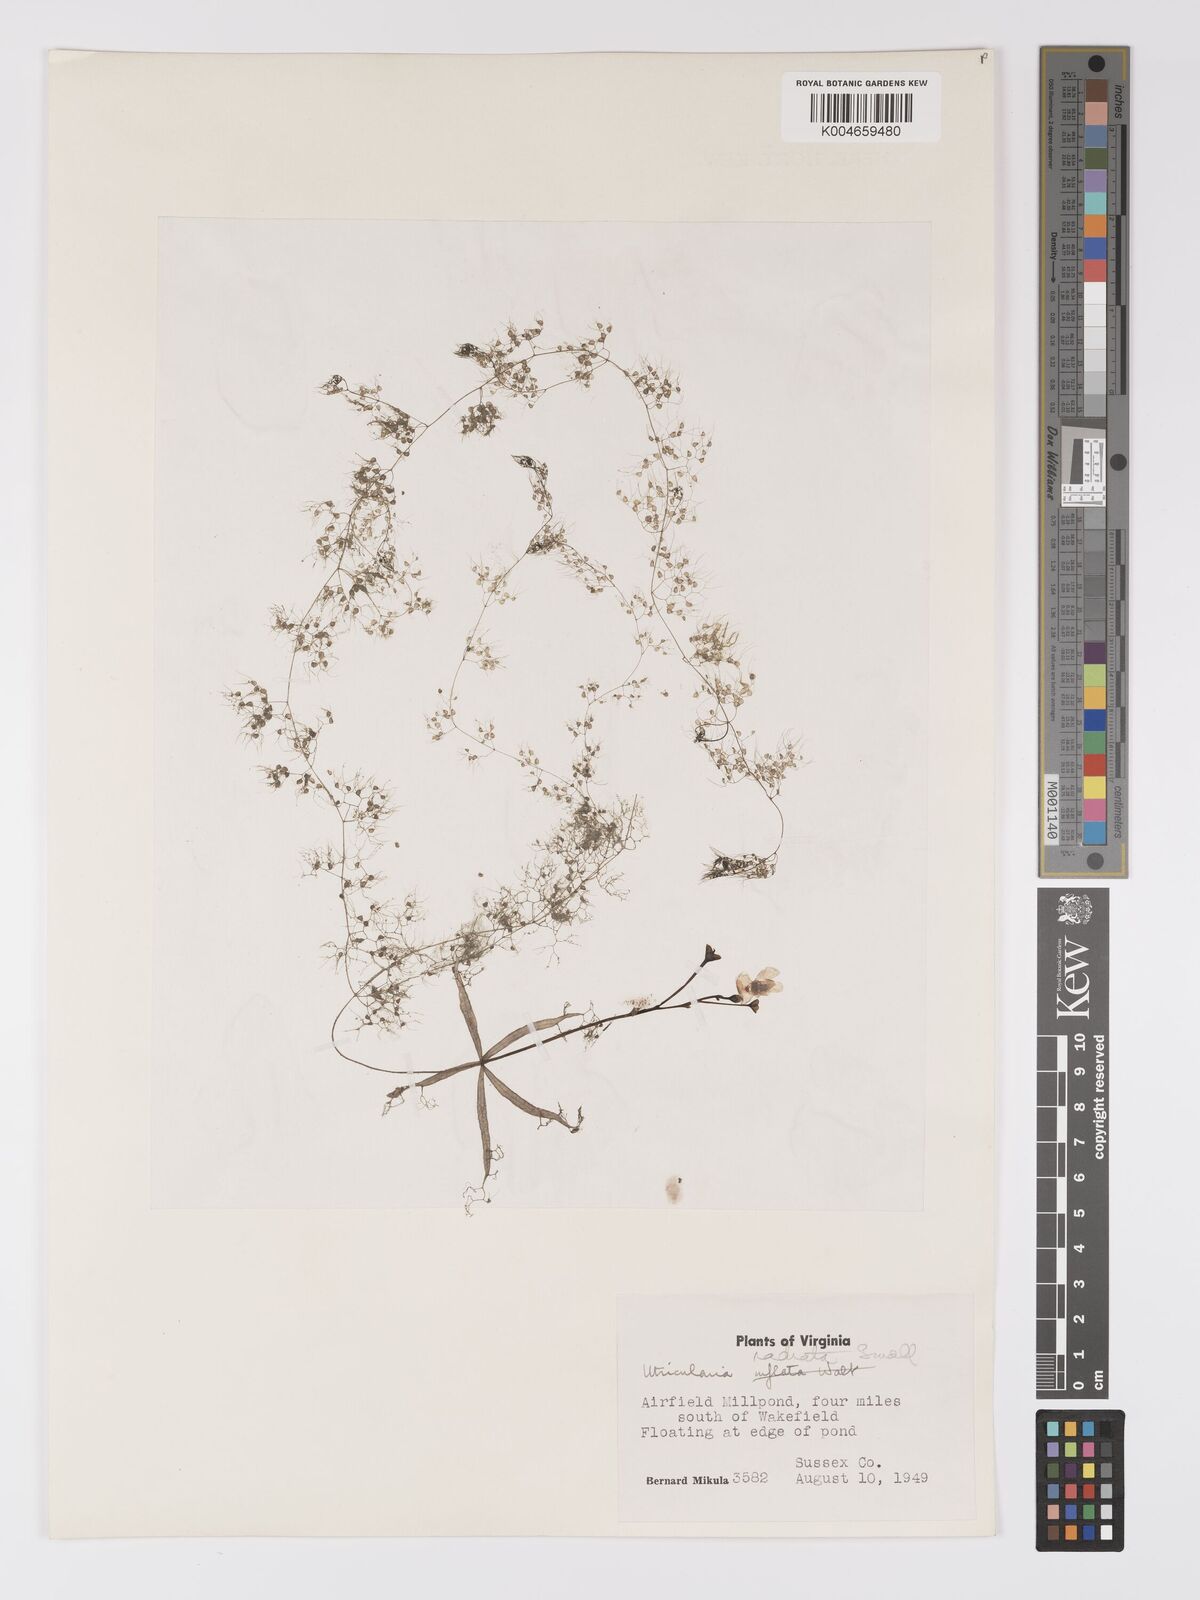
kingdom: Plantae
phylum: Tracheophyta
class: Magnoliopsida
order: Lamiales
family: Lentibulariaceae
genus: Utricularia
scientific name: Utricularia radiata
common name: Floating bladderwort
